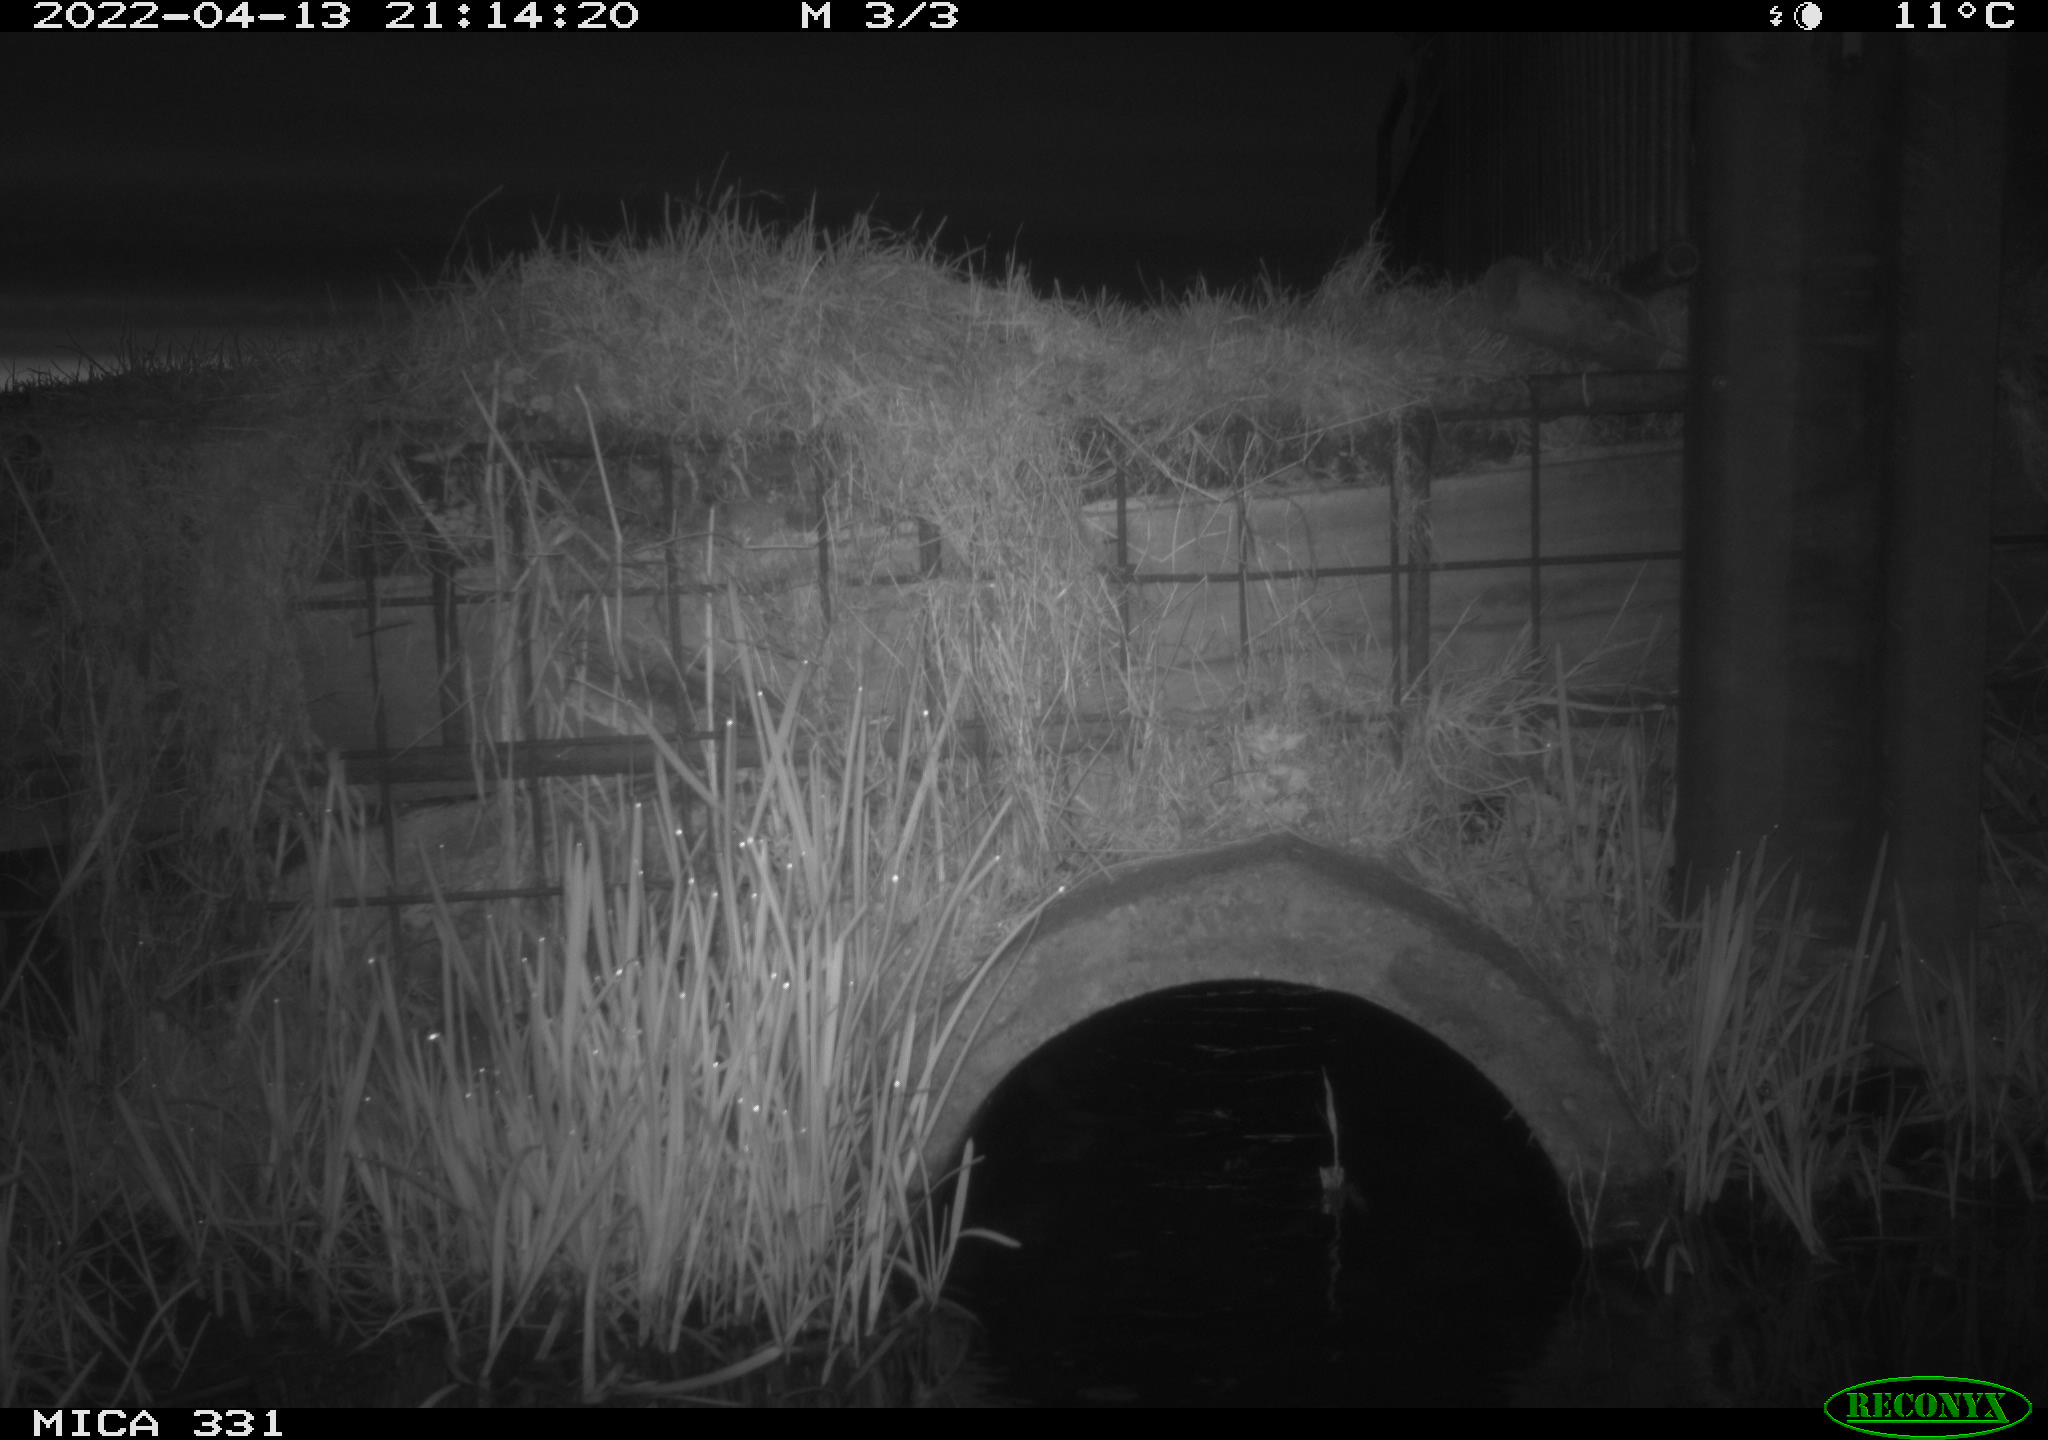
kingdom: Animalia
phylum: Chordata
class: Mammalia
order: Rodentia
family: Muridae
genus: Rattus
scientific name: Rattus norvegicus
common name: Brown rat
